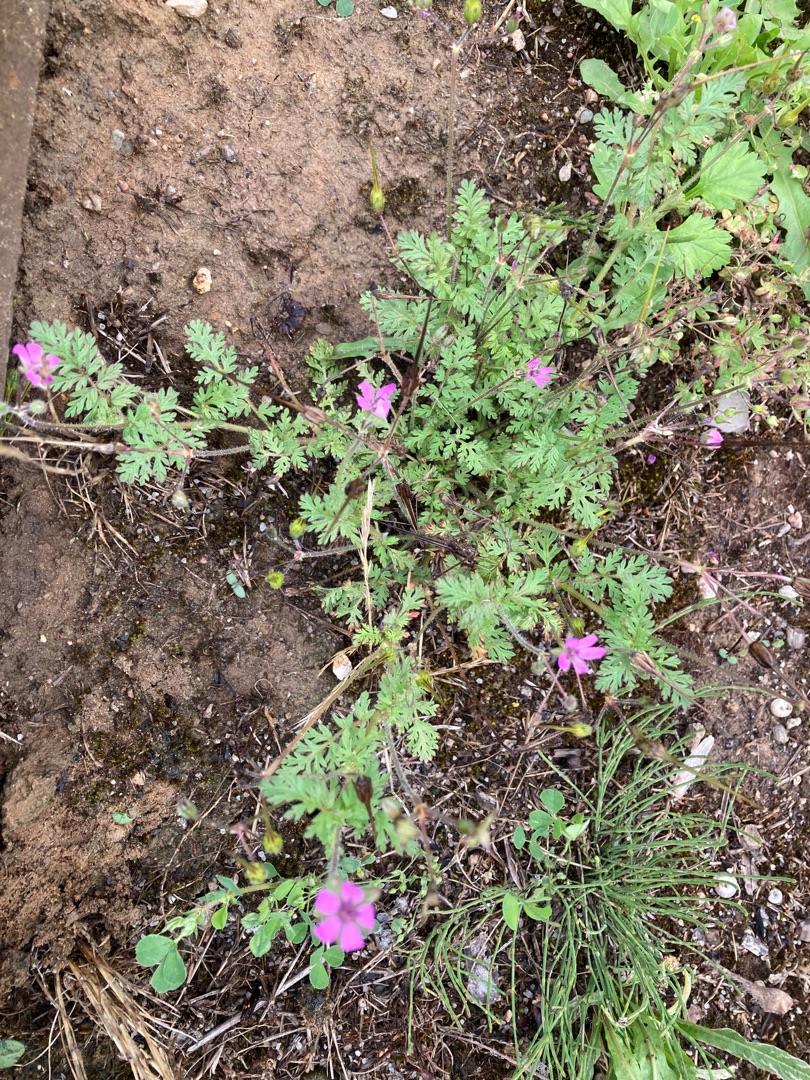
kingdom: Plantae
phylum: Tracheophyta
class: Magnoliopsida
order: Geraniales
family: Geraniaceae
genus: Erodium
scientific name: Erodium cicutarium
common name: Hejrenæb
